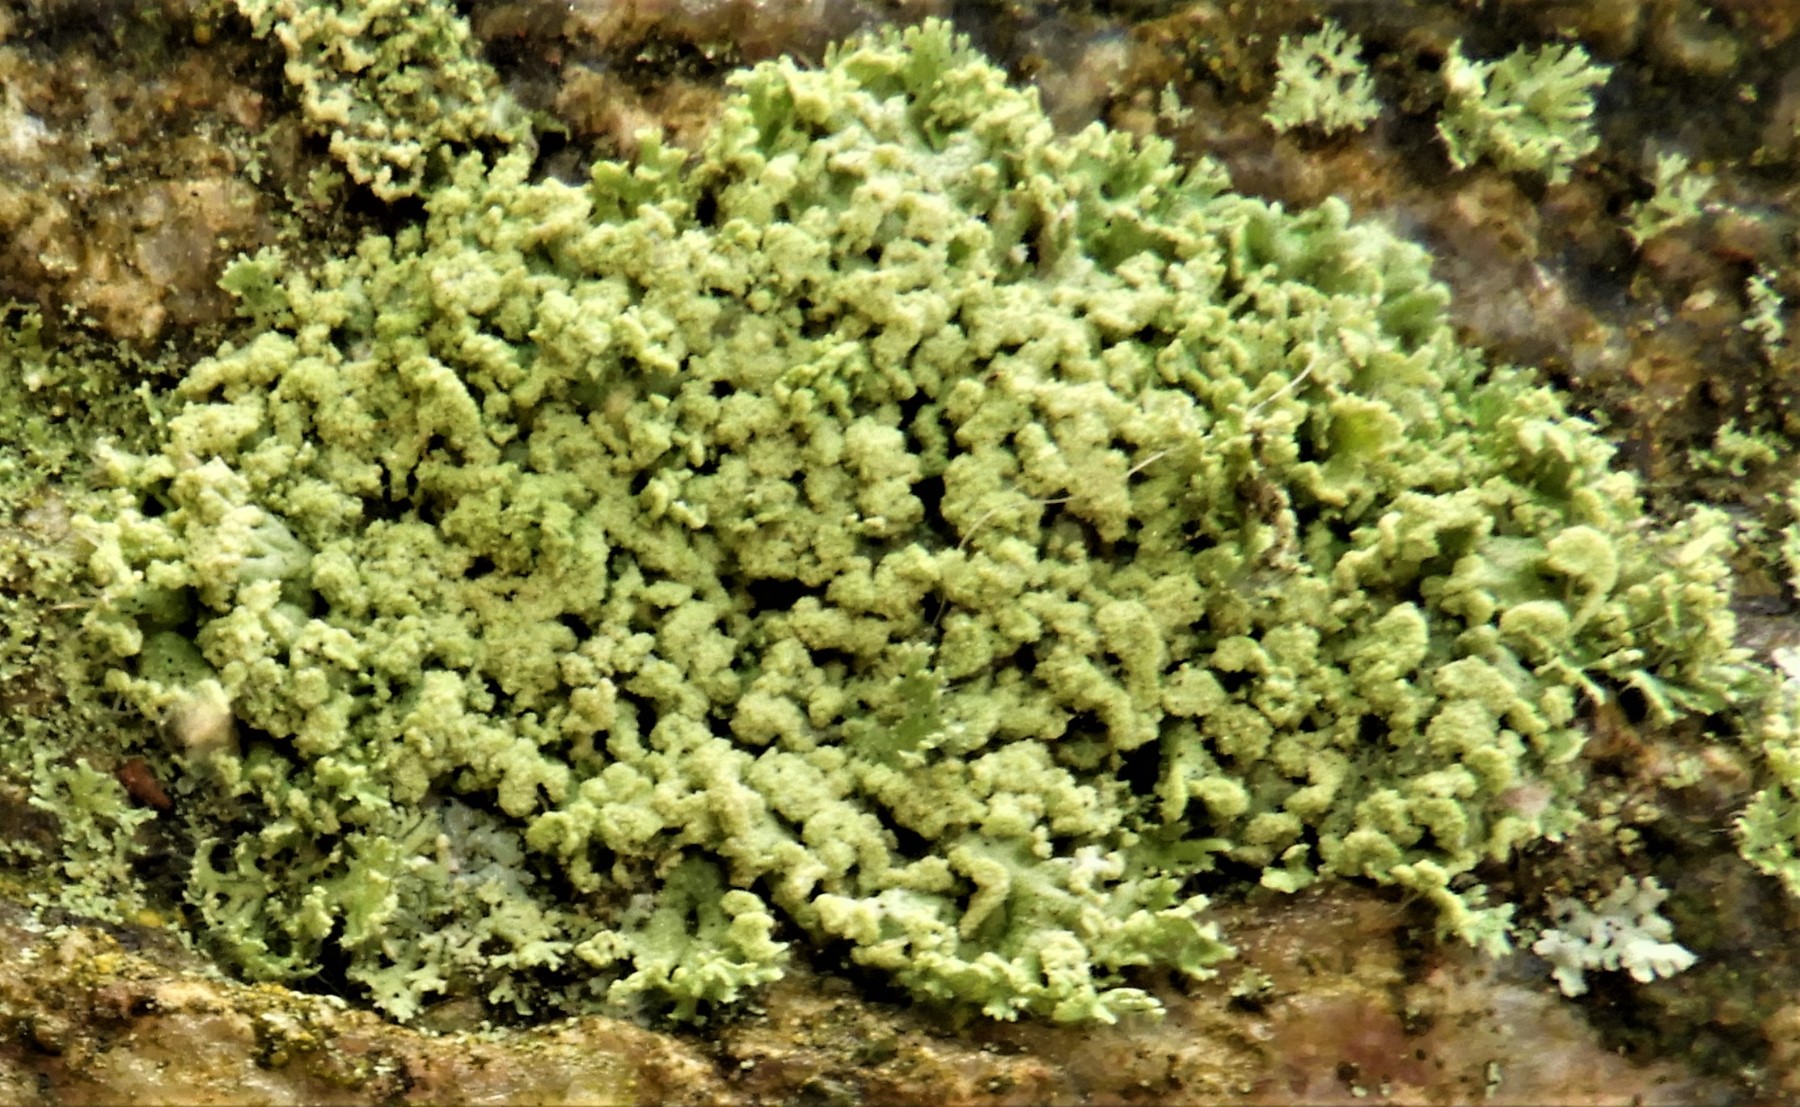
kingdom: Fungi
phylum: Ascomycota
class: Lecanoromycetes
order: Caliciales
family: Physciaceae
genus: Physcia
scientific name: Physcia tenella
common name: spæd rosetlav
